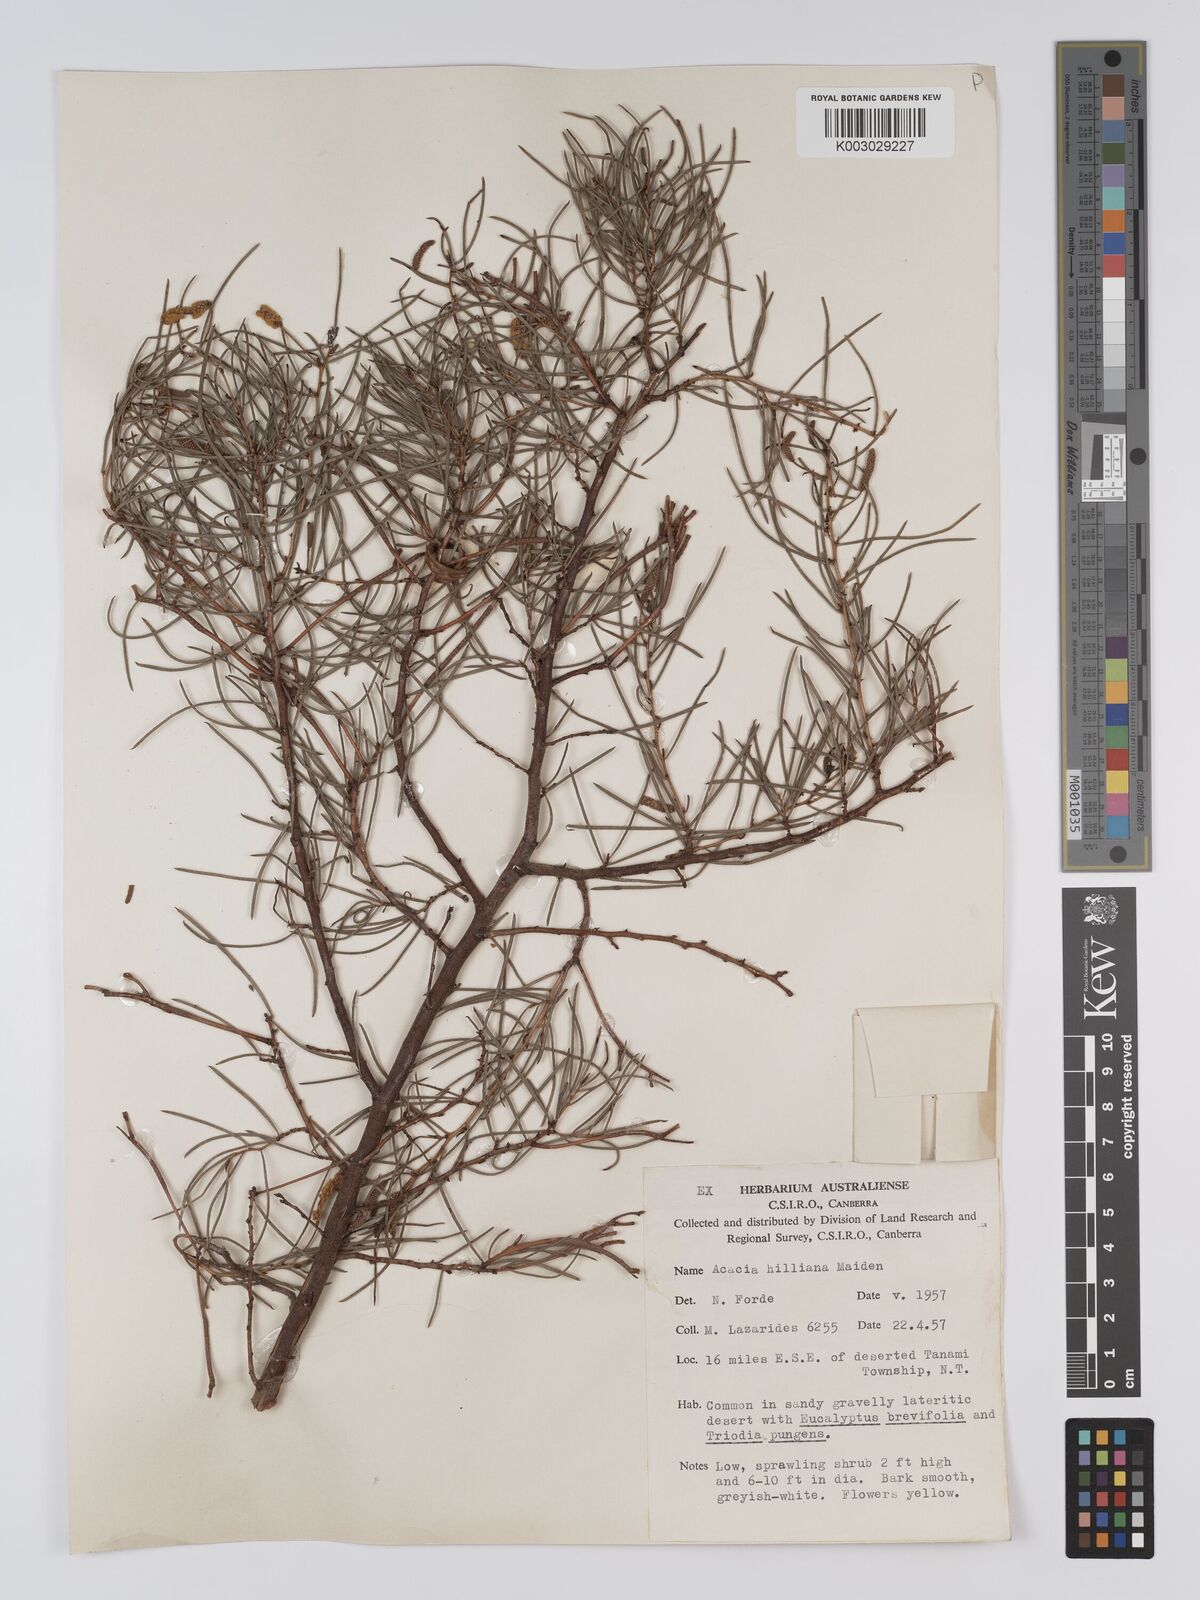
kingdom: Plantae
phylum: Tracheophyta
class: Magnoliopsida
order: Fabales
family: Fabaceae
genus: Acacia
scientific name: Acacia hilliana
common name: Hill's tabletop wattle
